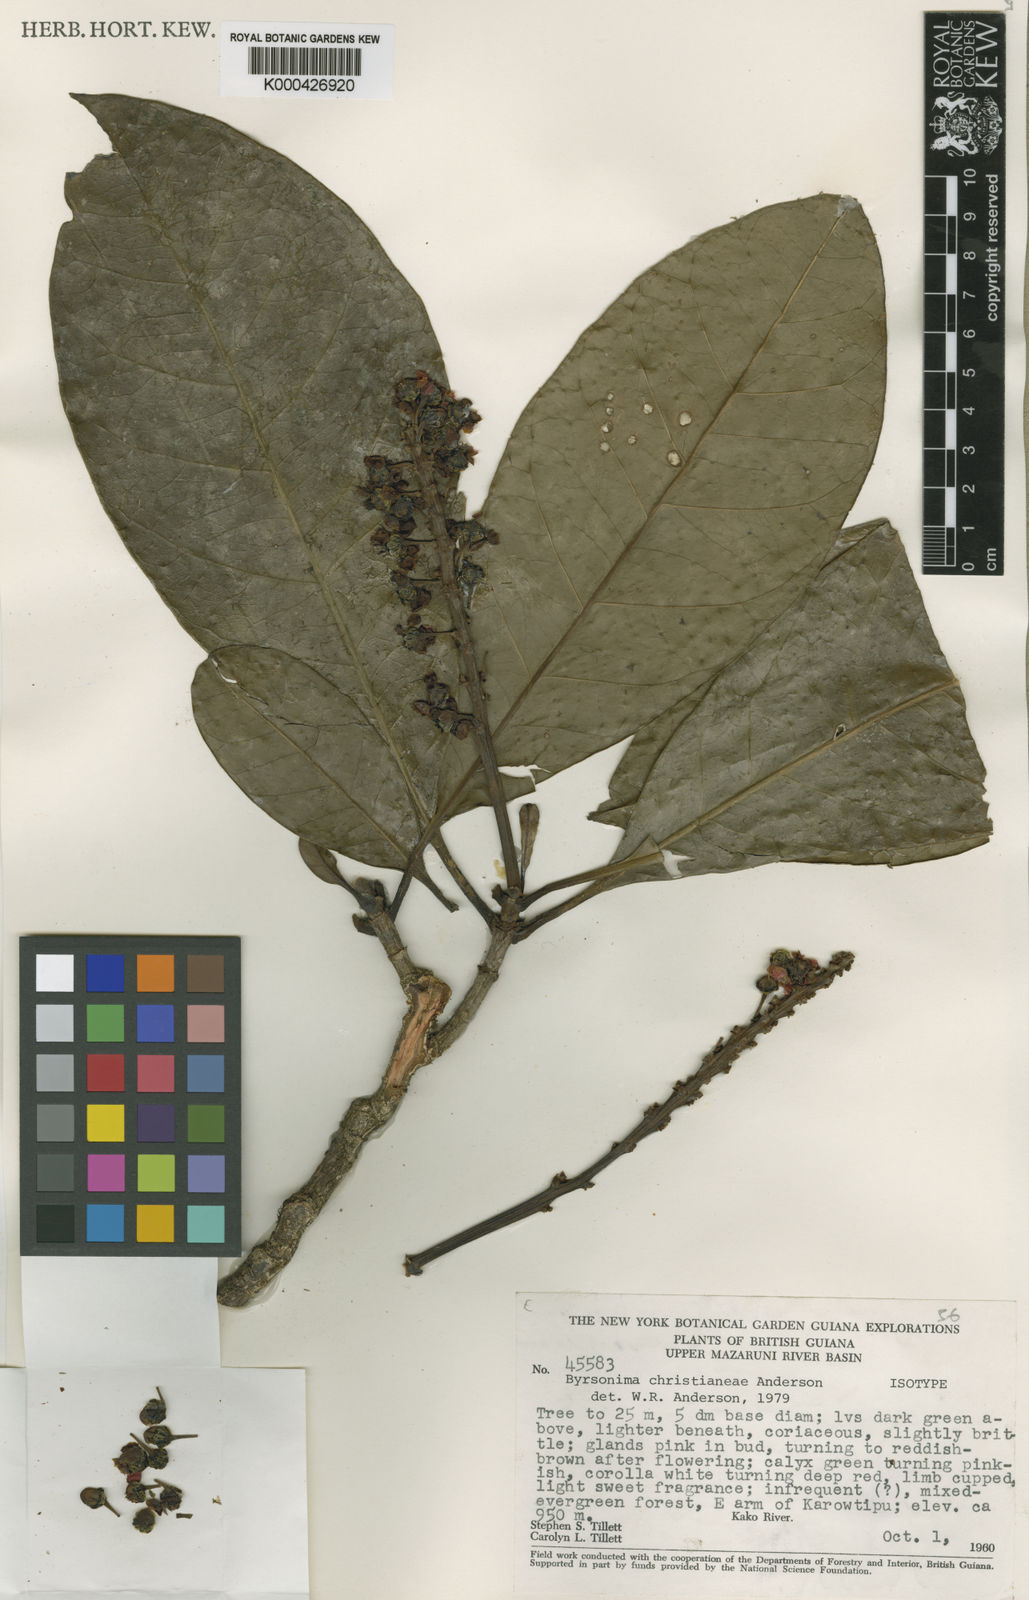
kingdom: Plantae
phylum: Tracheophyta
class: Magnoliopsida
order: Malpighiales
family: Malpighiaceae
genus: Byrsonima
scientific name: Byrsonima christianeae
